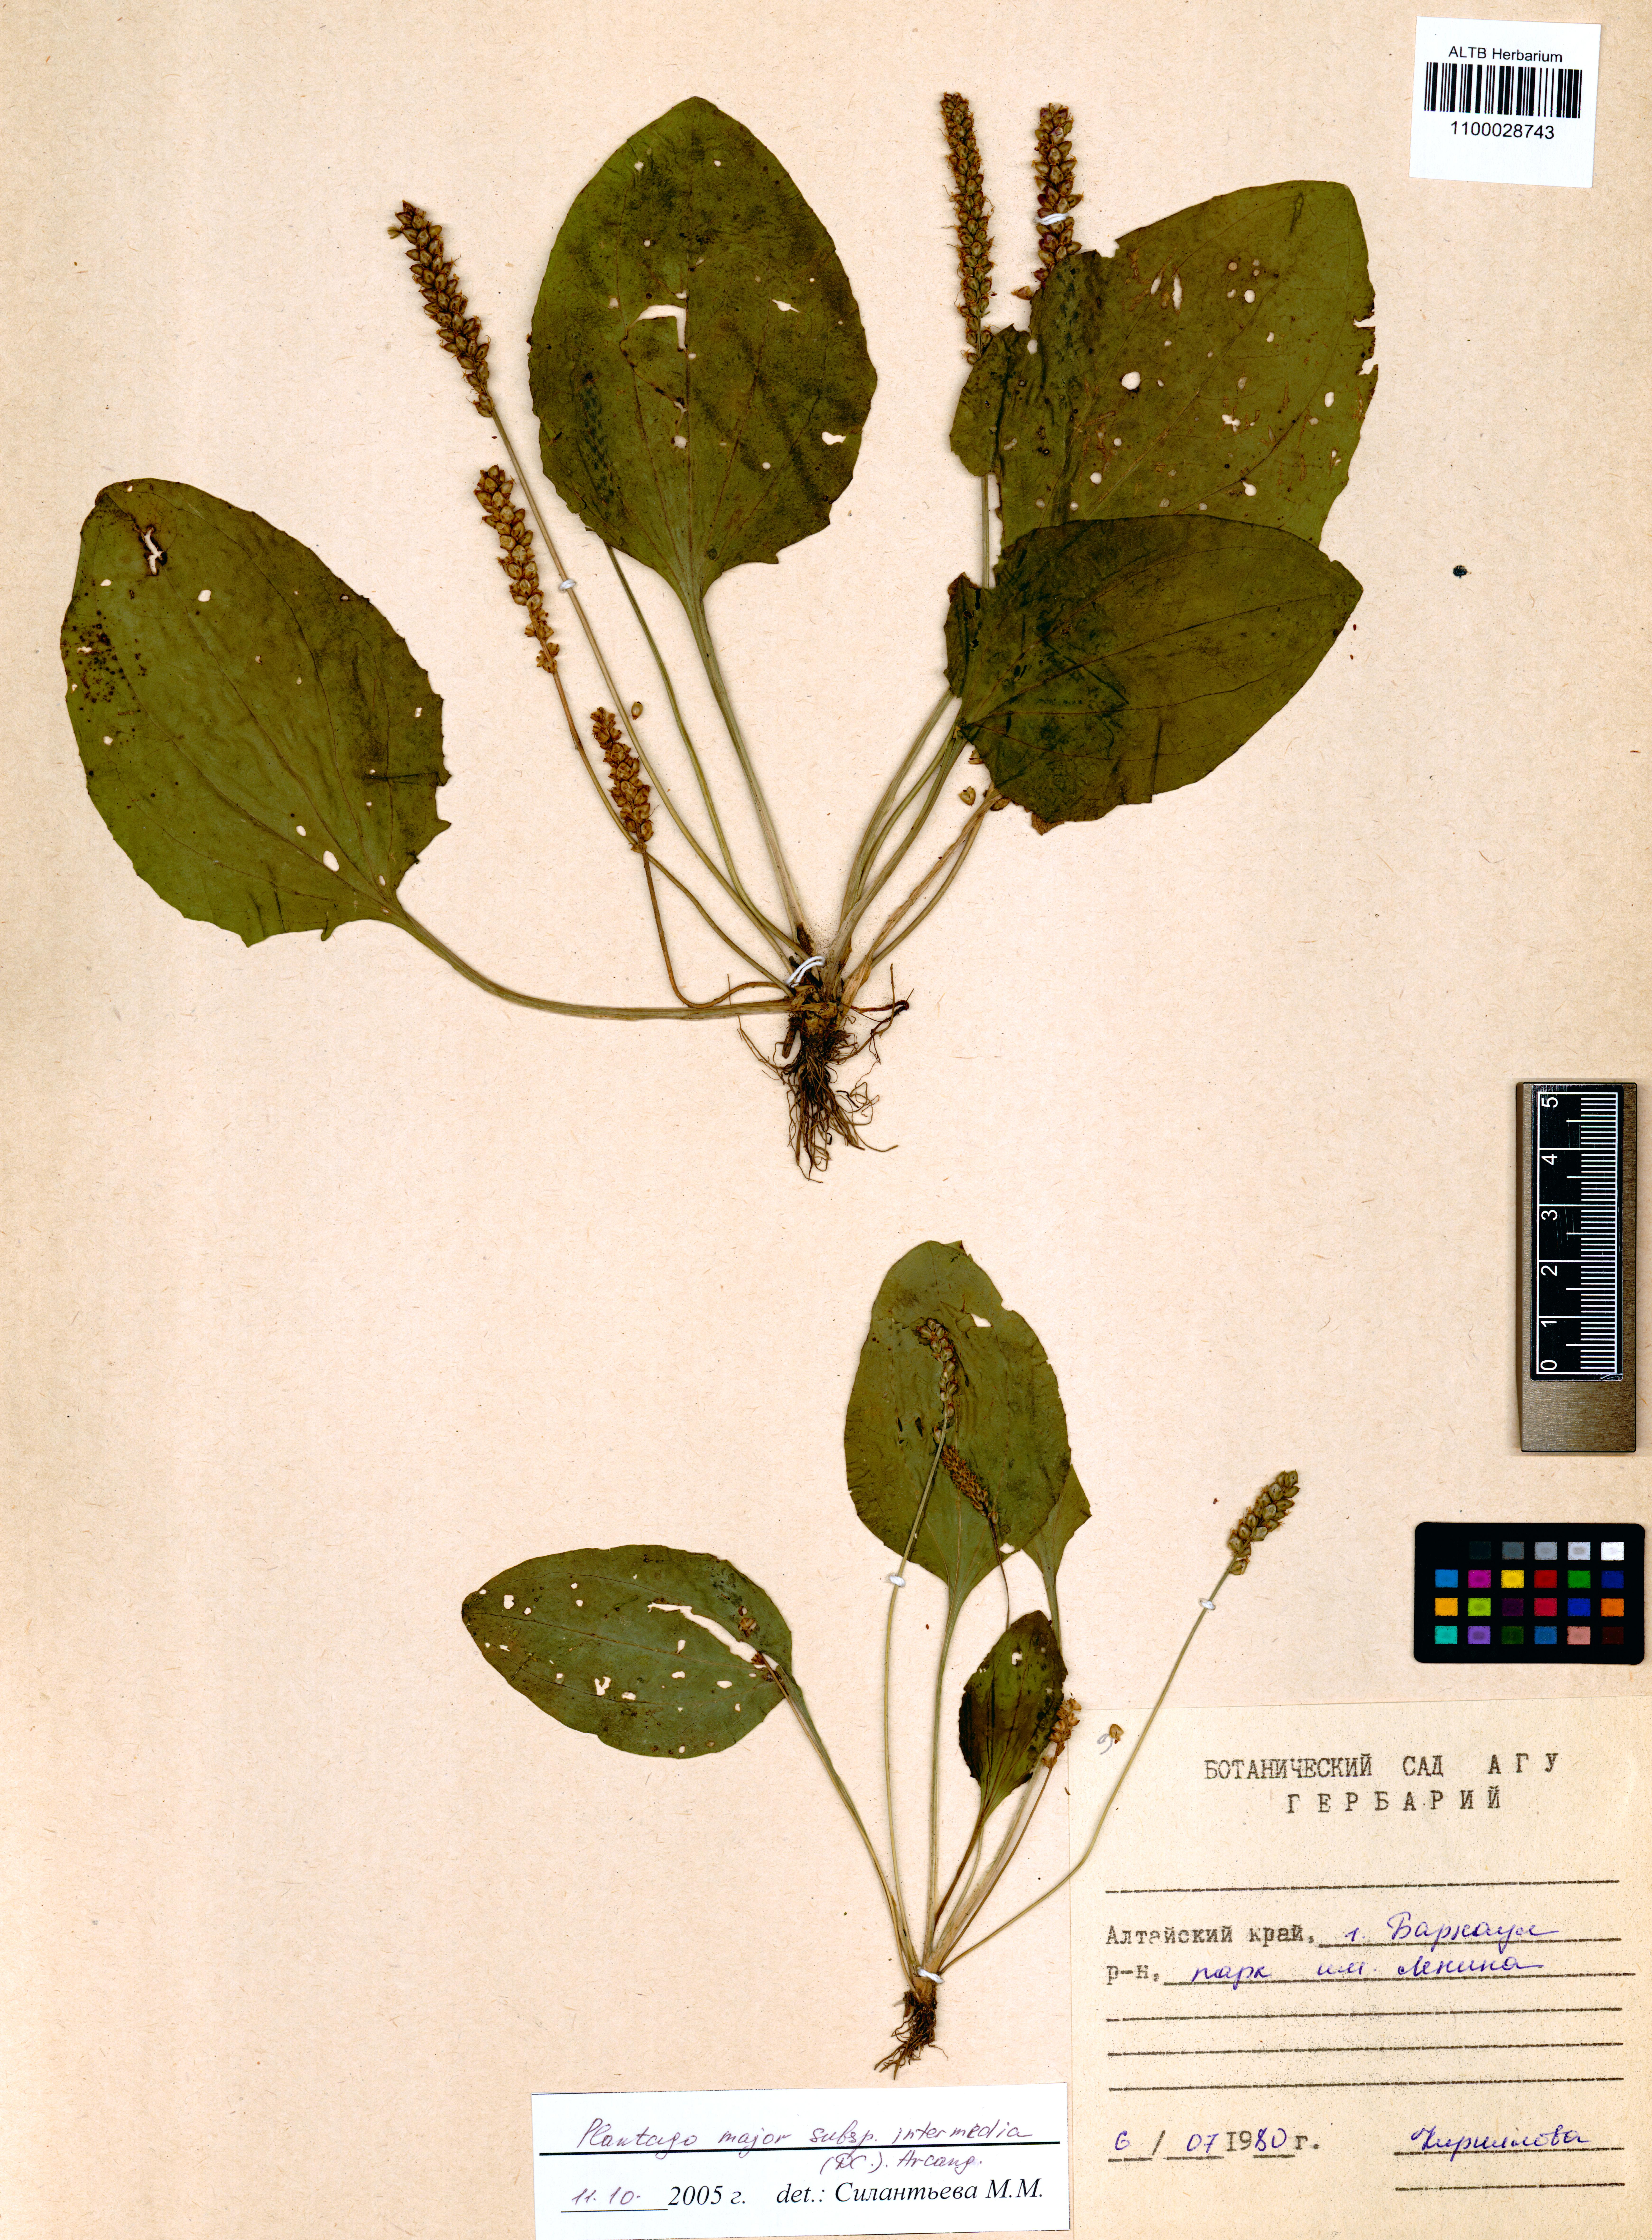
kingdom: Plantae
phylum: Tracheophyta
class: Magnoliopsida
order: Lamiales
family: Plantaginaceae
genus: Plantago
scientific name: Plantago uliginosa
